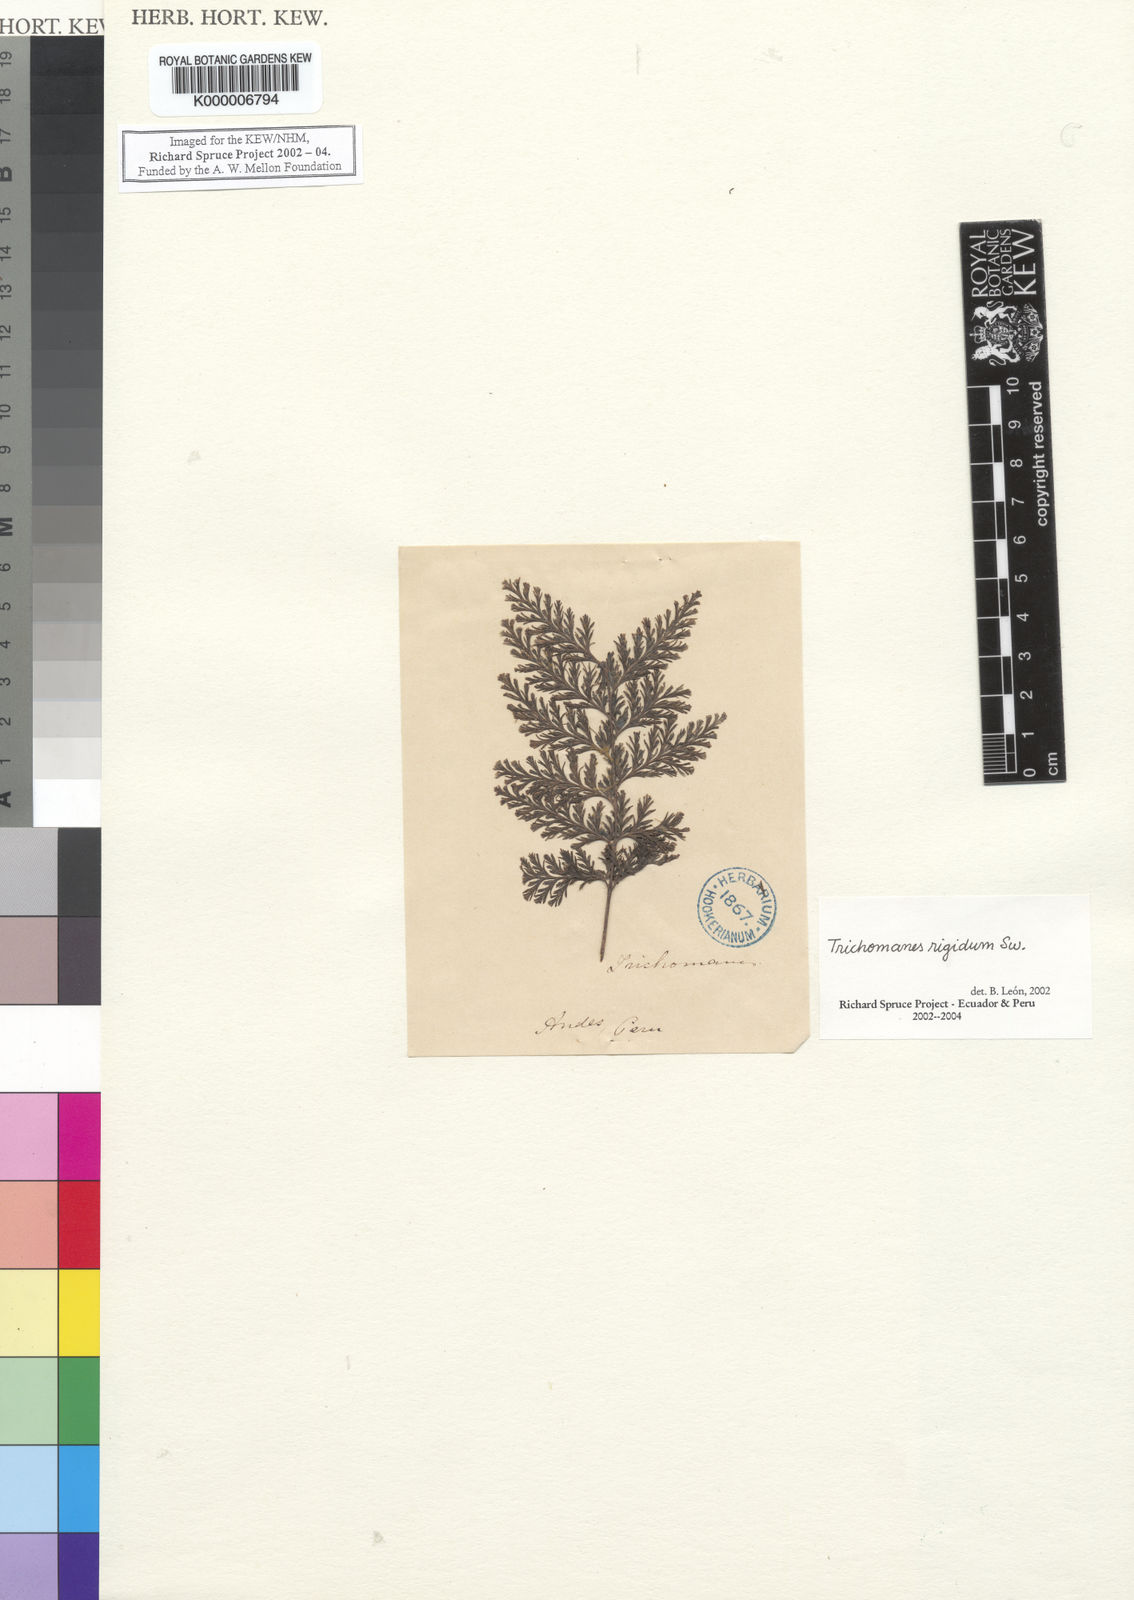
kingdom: Plantae
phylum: Tracheophyta
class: Polypodiopsida
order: Hymenophyllales
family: Hymenophyllaceae
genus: Abrodictyum
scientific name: Abrodictyum rigidum
